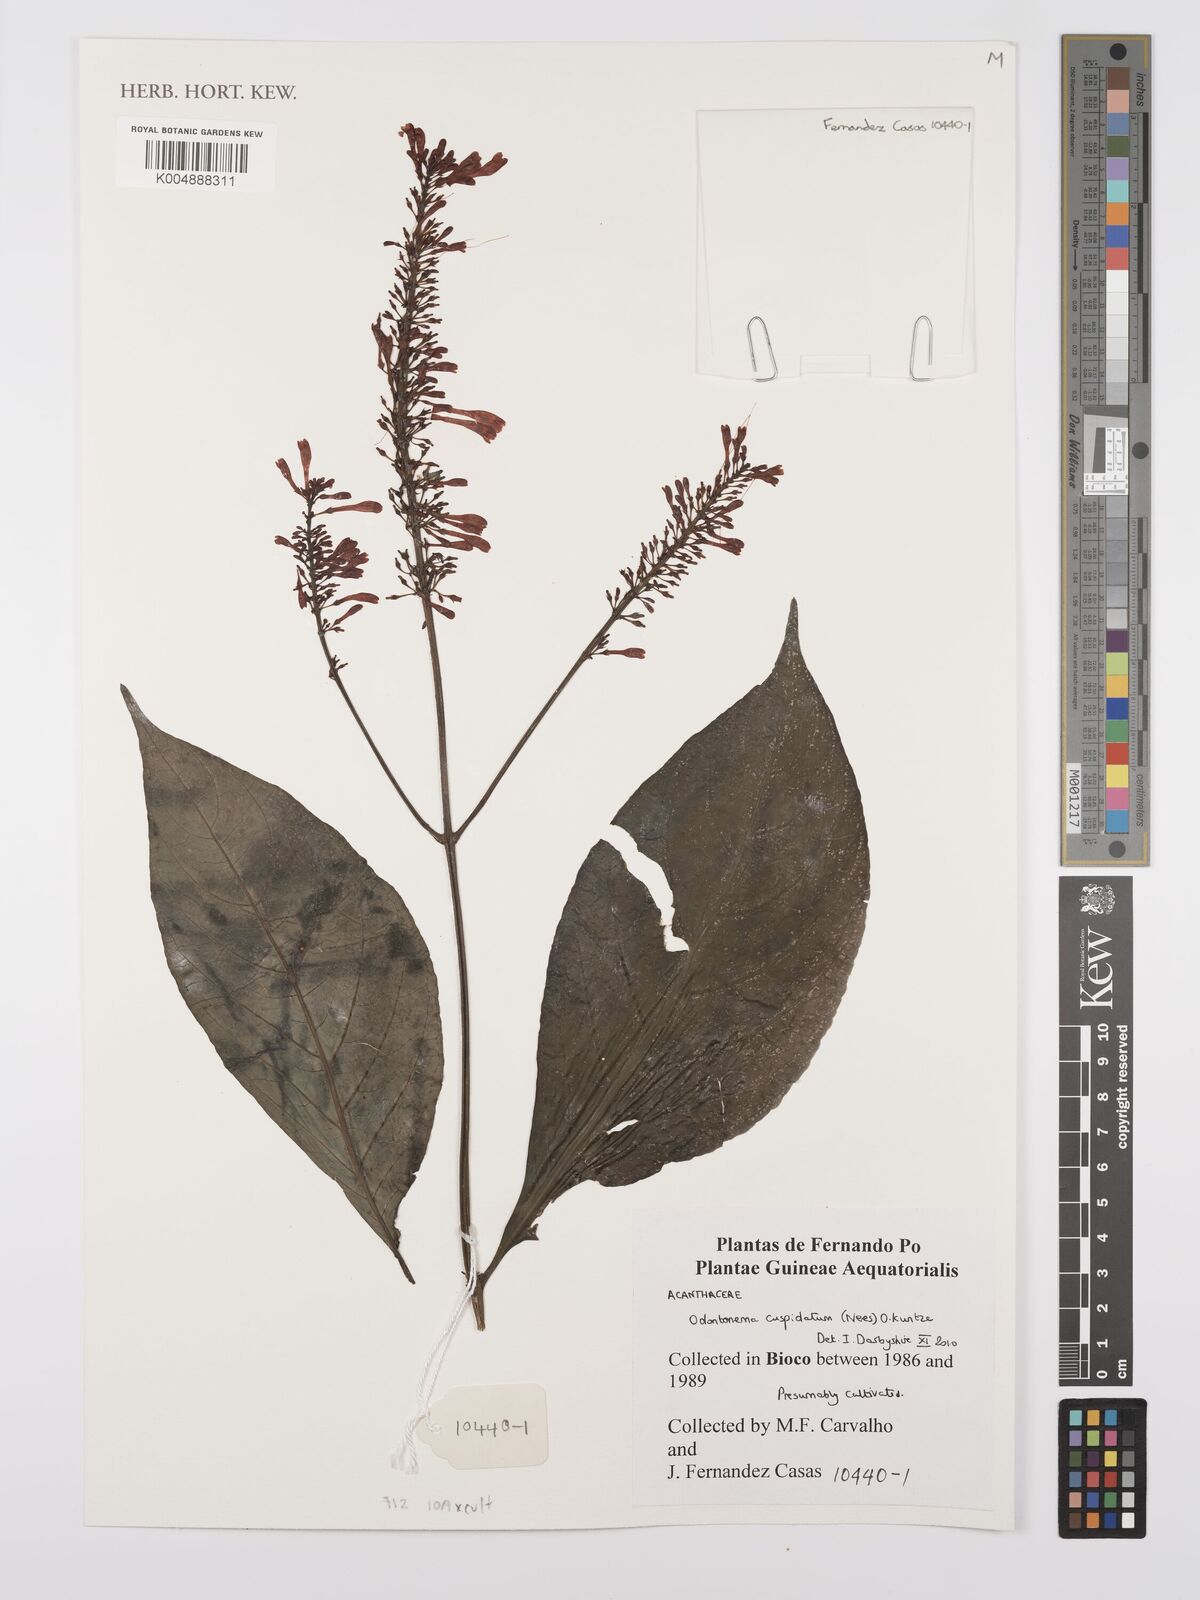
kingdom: Plantae
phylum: Tracheophyta
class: Magnoliopsida
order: Lamiales
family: Acanthaceae
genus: Odontonema
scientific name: Odontonema cuspidatum
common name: Mottled toothedthread
